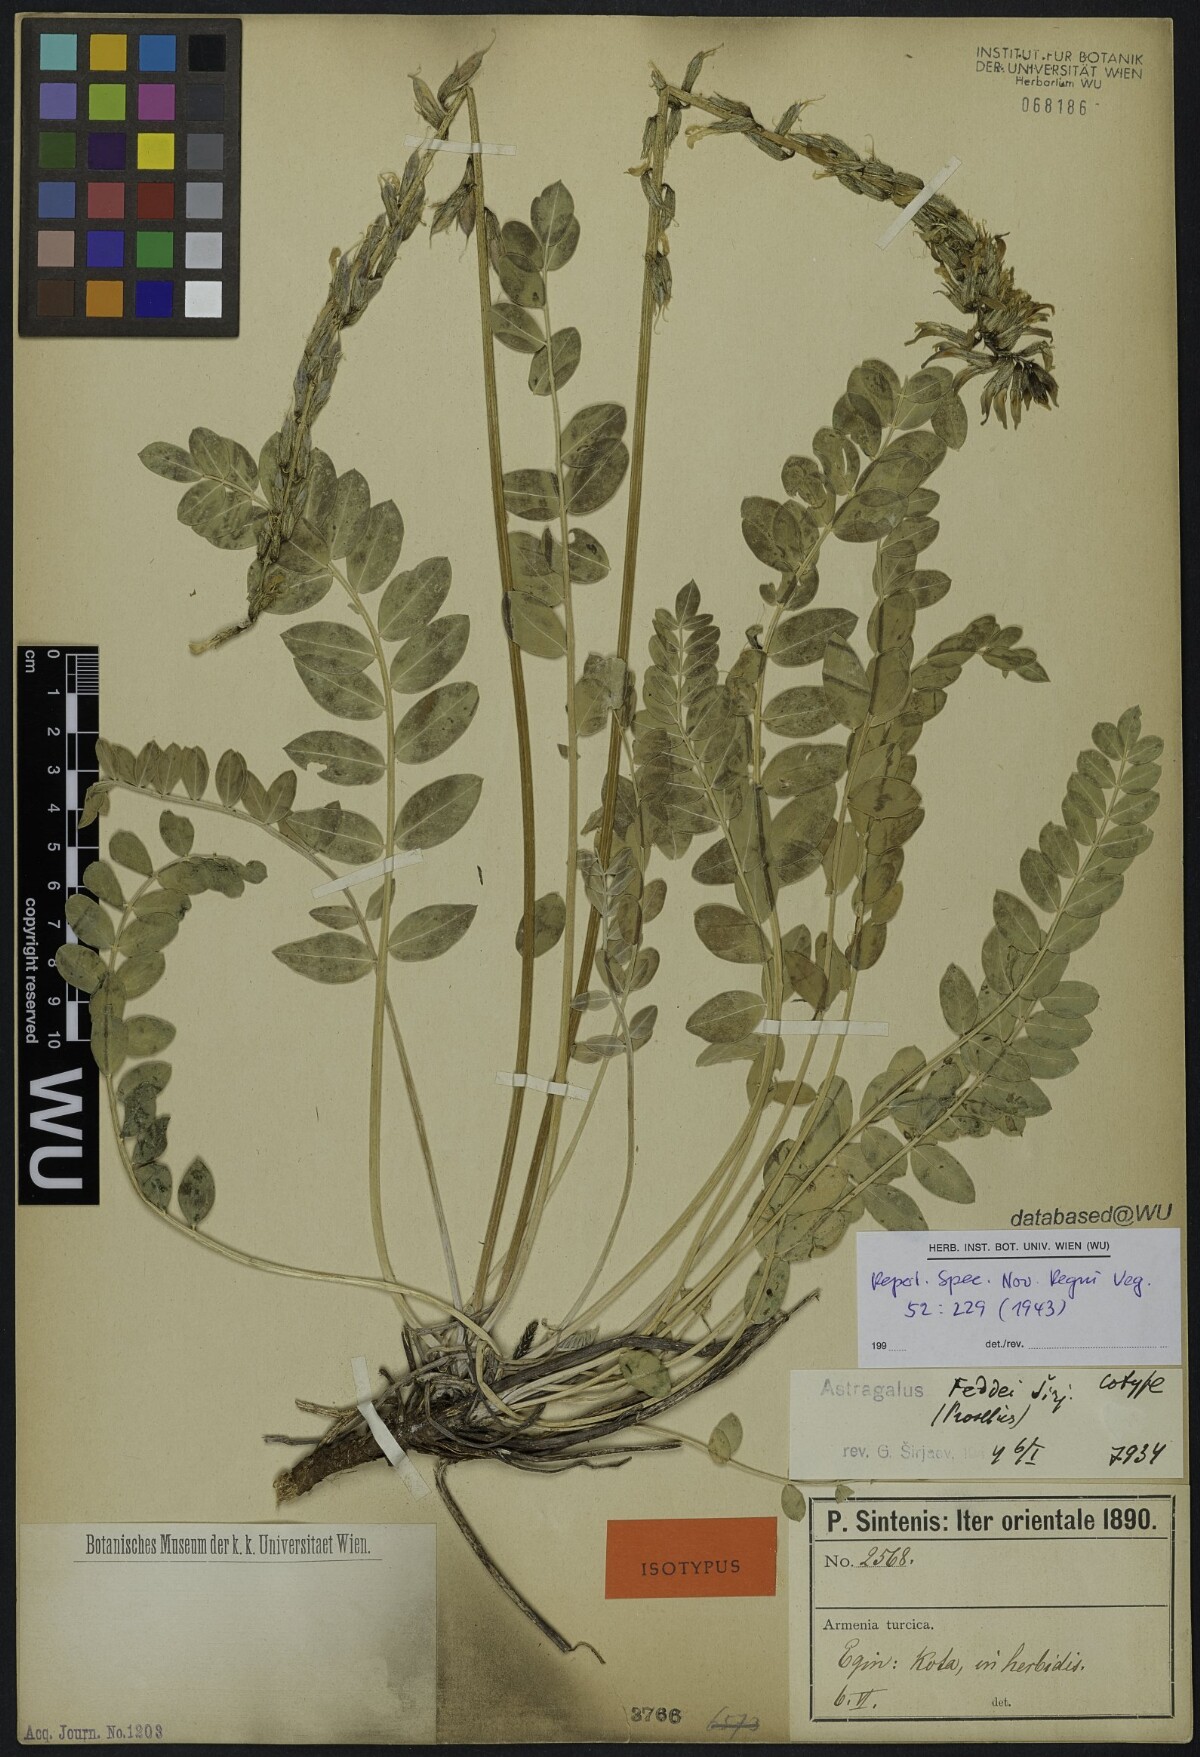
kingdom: Plantae
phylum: Tracheophyta
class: Magnoliopsida
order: Fabales
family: Fabaceae
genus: Astragalus
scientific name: Astragalus pendulus
